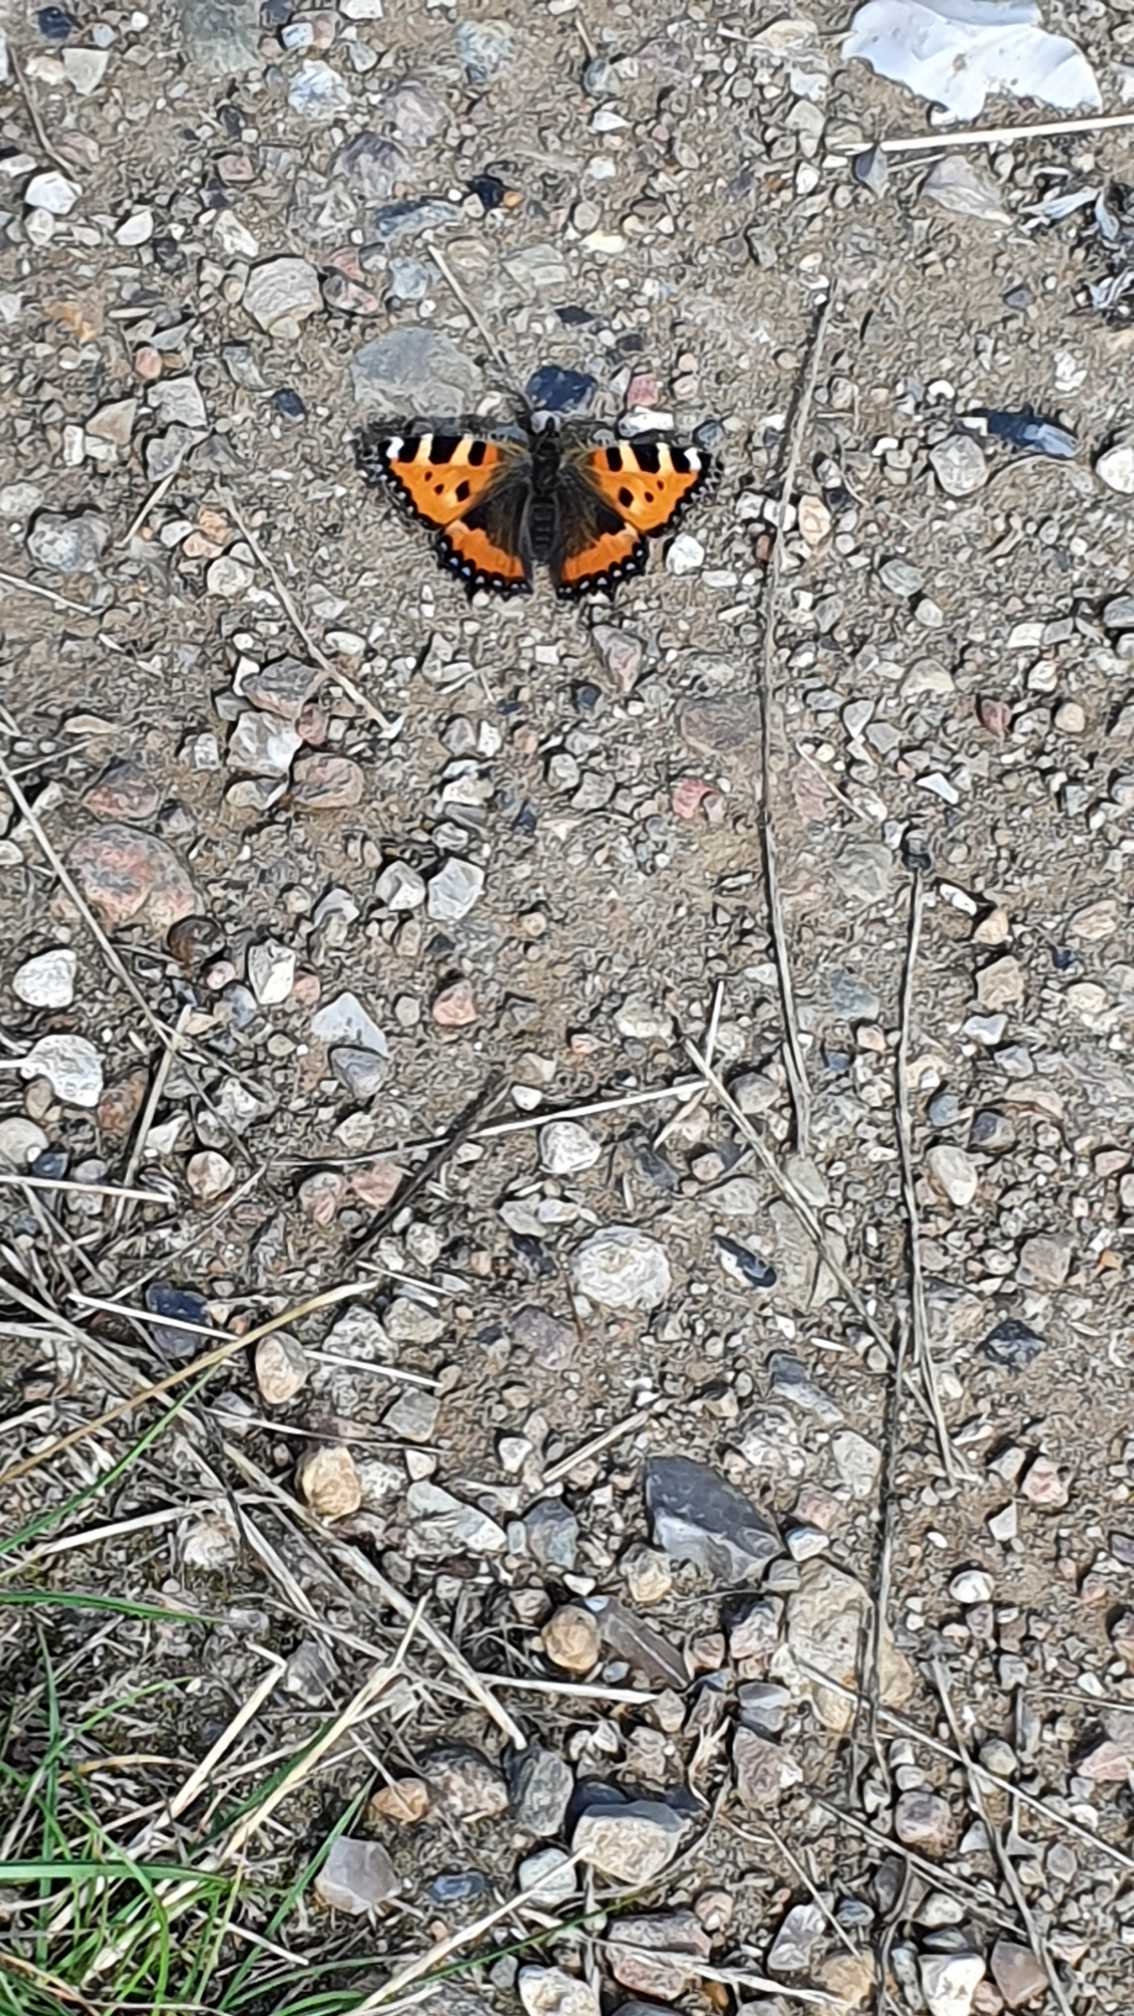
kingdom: Animalia
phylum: Arthropoda
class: Insecta
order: Lepidoptera
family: Nymphalidae
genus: Aglais
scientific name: Aglais urticae
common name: Nældens takvinge
